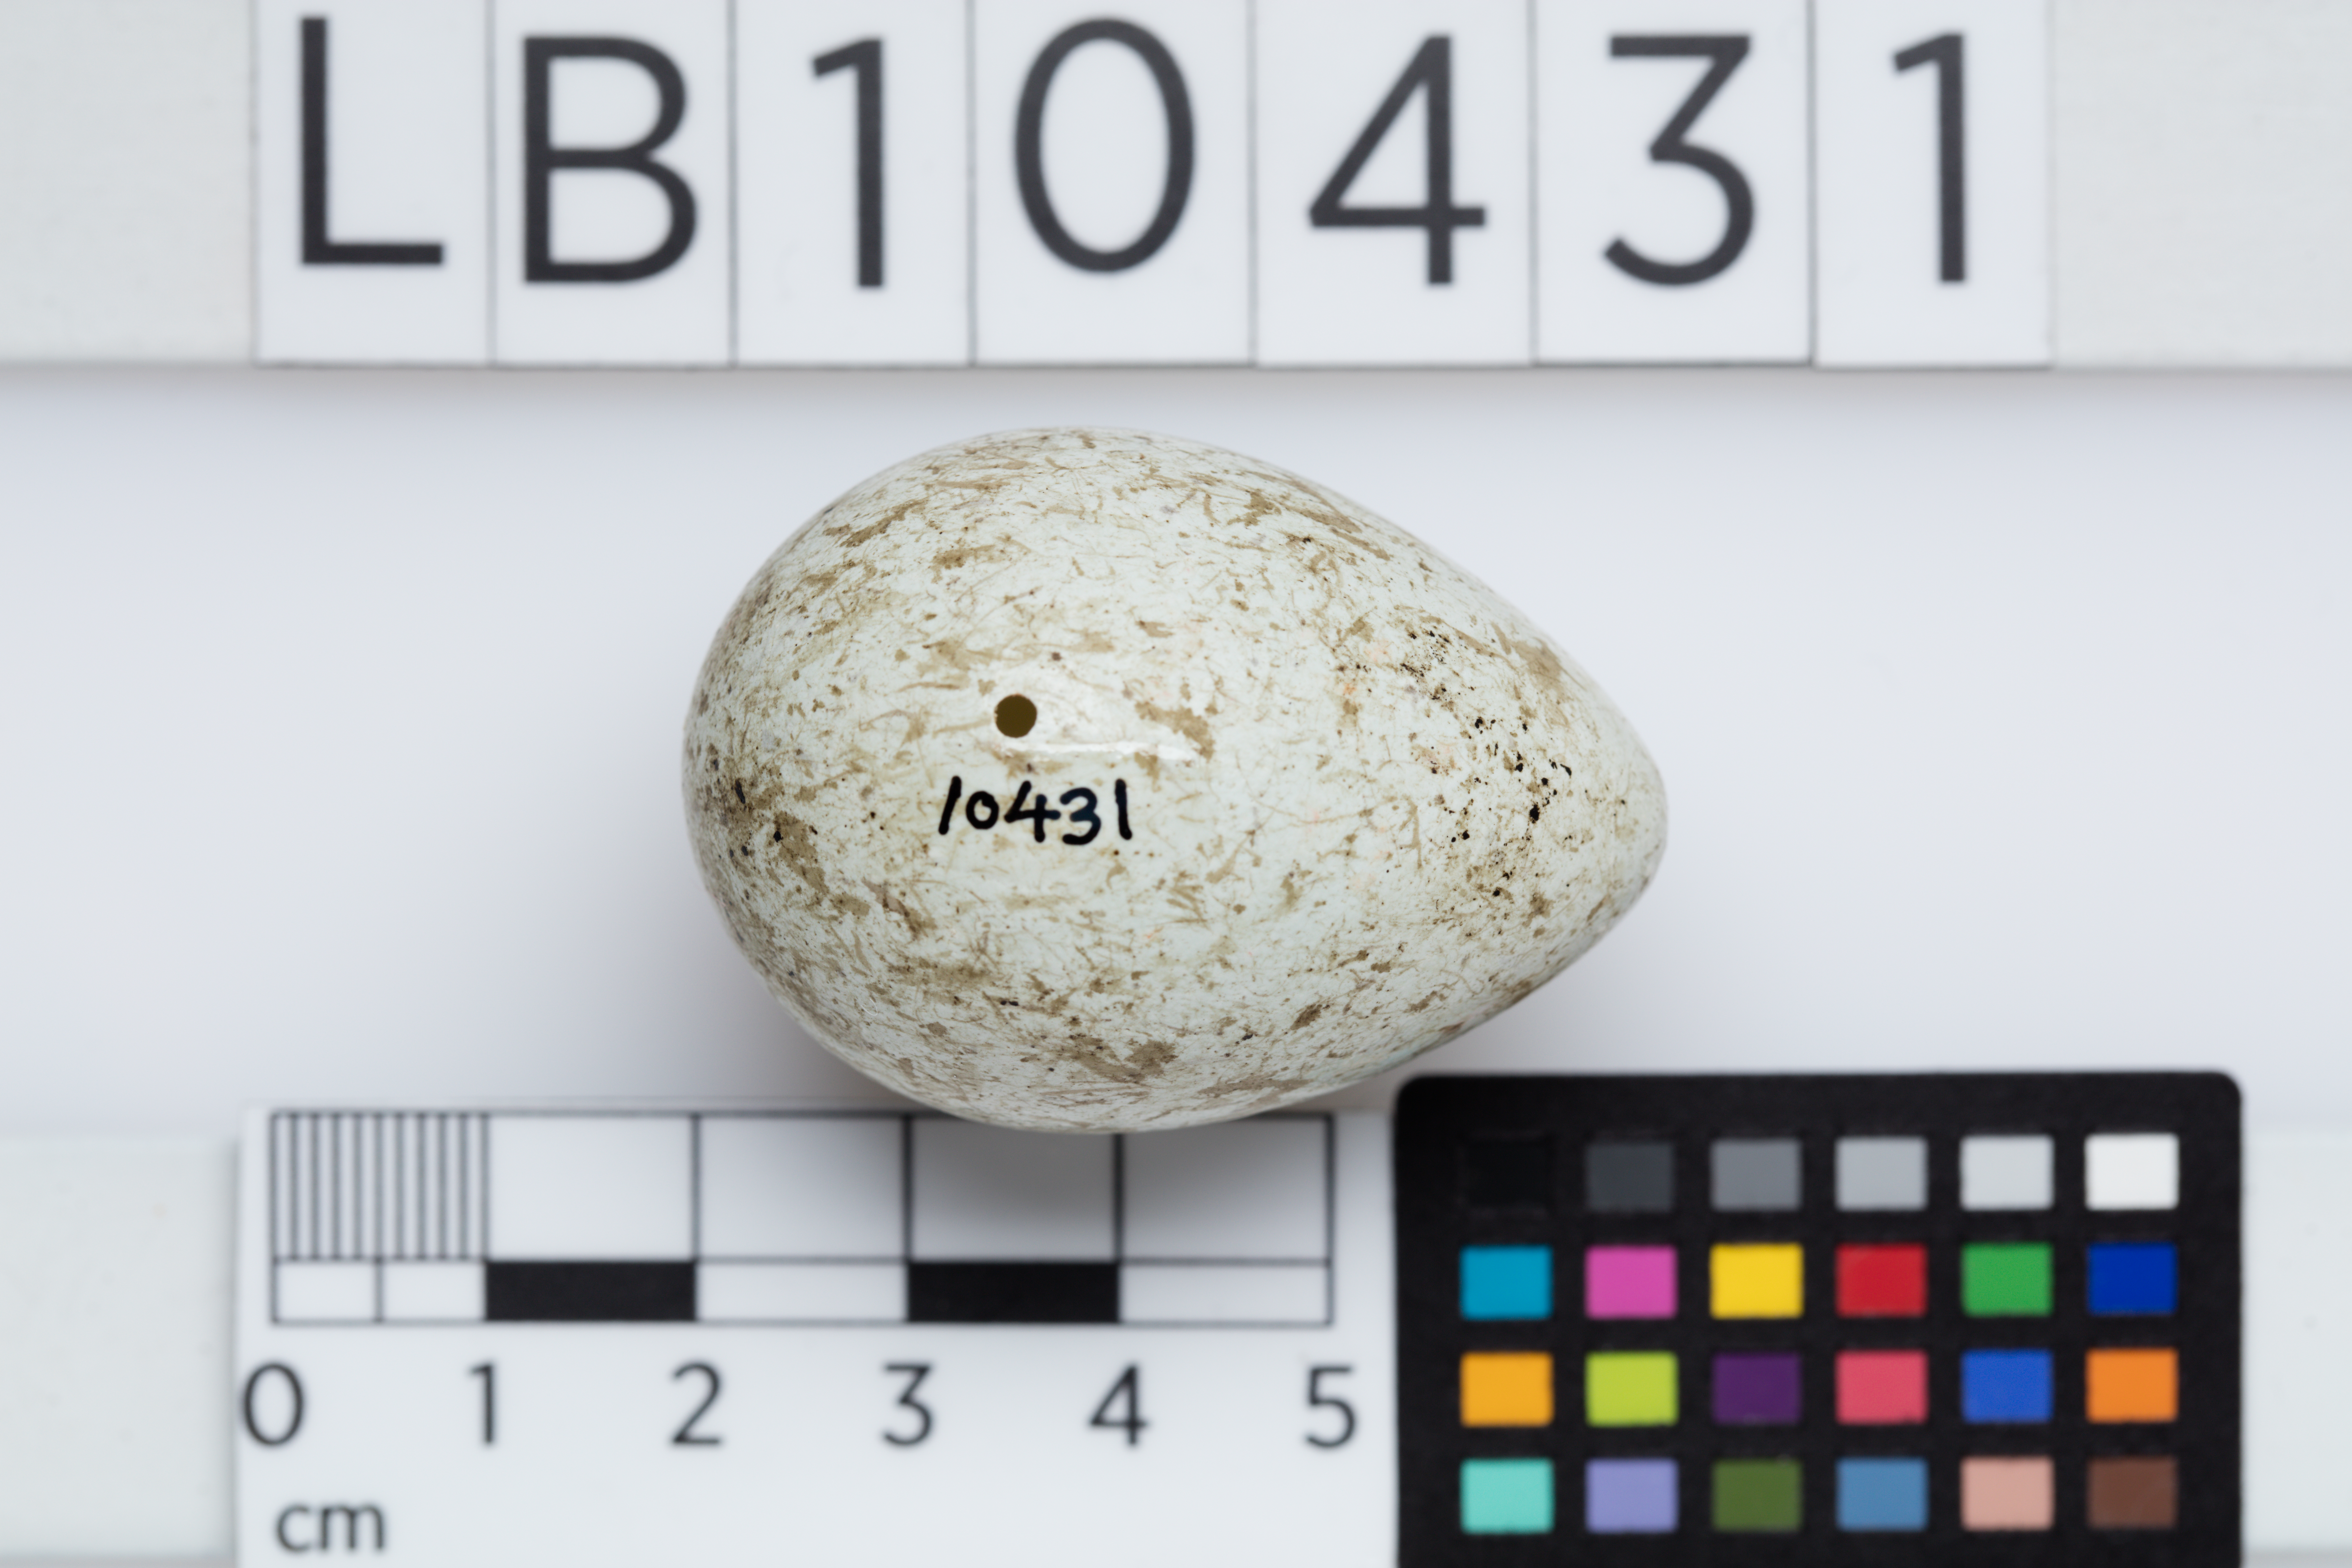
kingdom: Animalia
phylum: Chordata
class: Aves
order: Passeriformes
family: Corvidae
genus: Corvus
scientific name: Corvus corone
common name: Carrion crow
